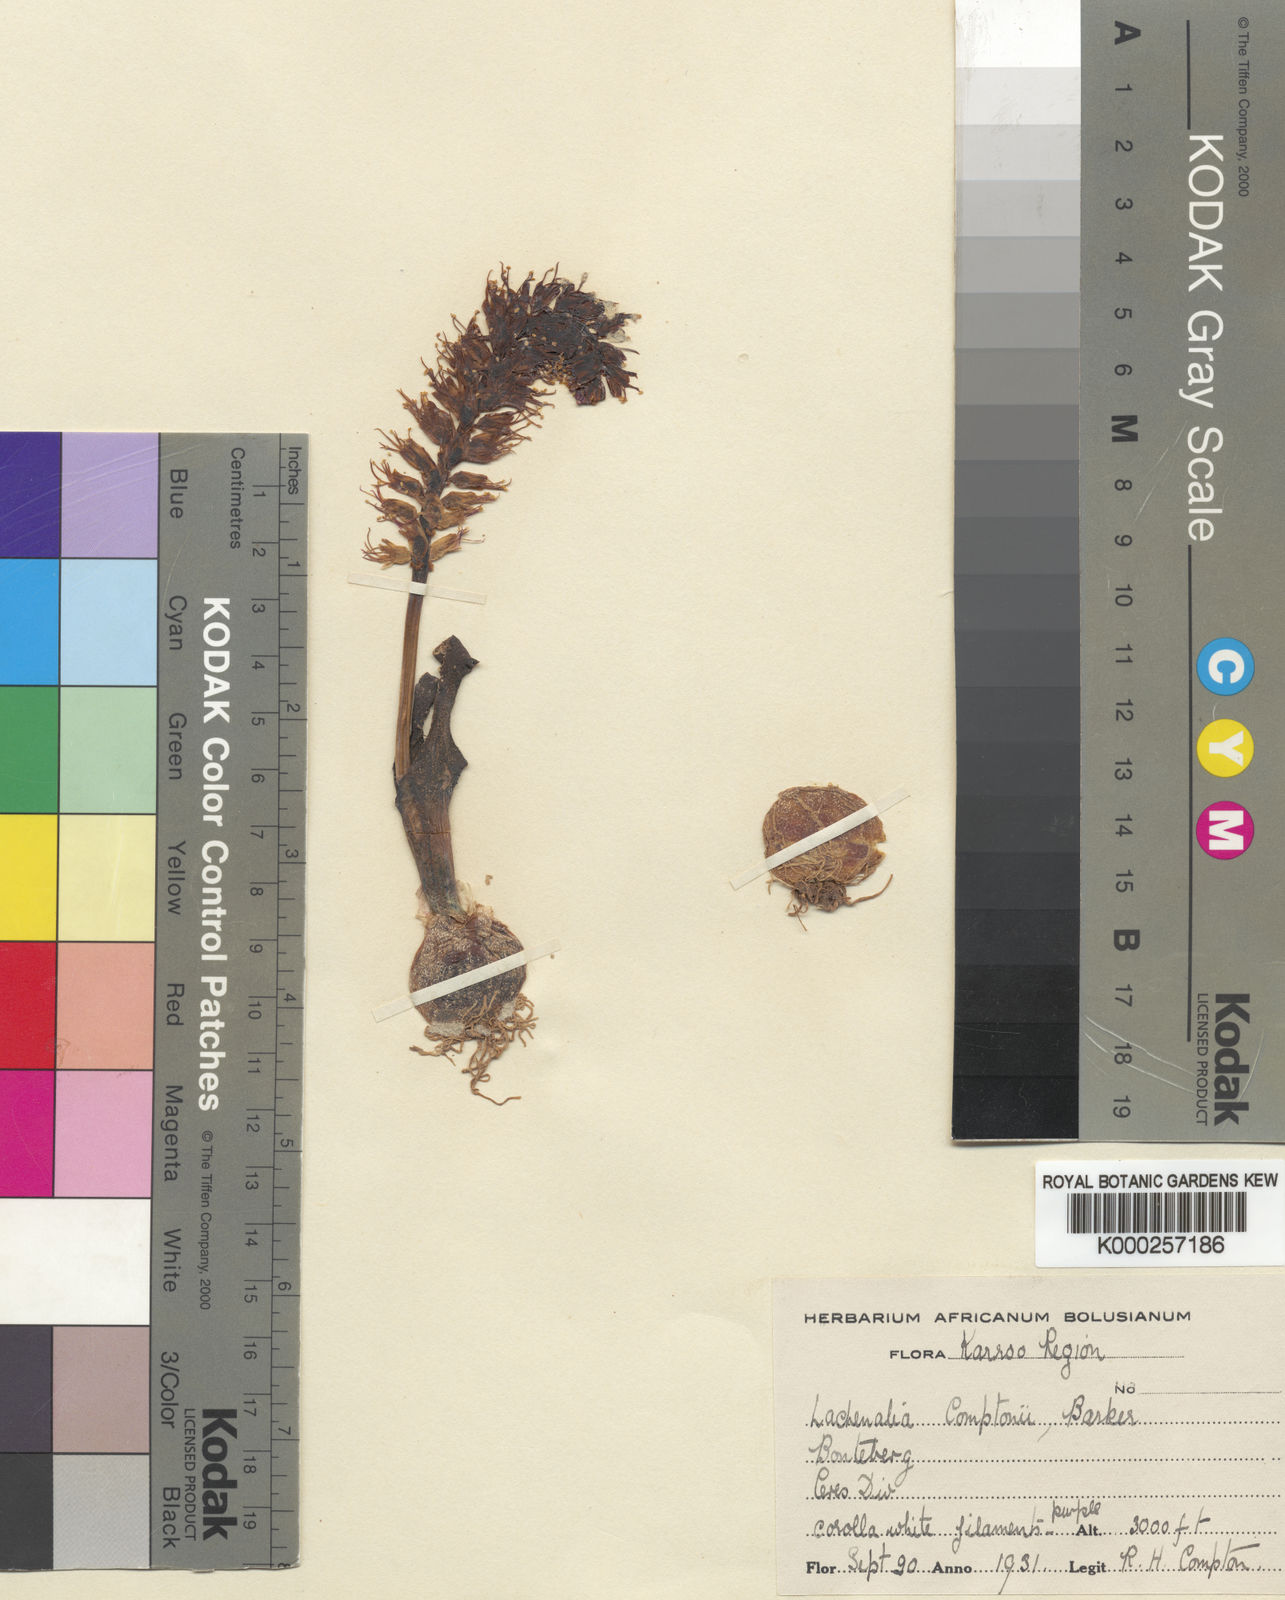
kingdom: Plantae
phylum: Tracheophyta
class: Liliopsida
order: Asparagales
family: Asparagaceae
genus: Lachenalia
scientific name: Lachenalia comptonii
